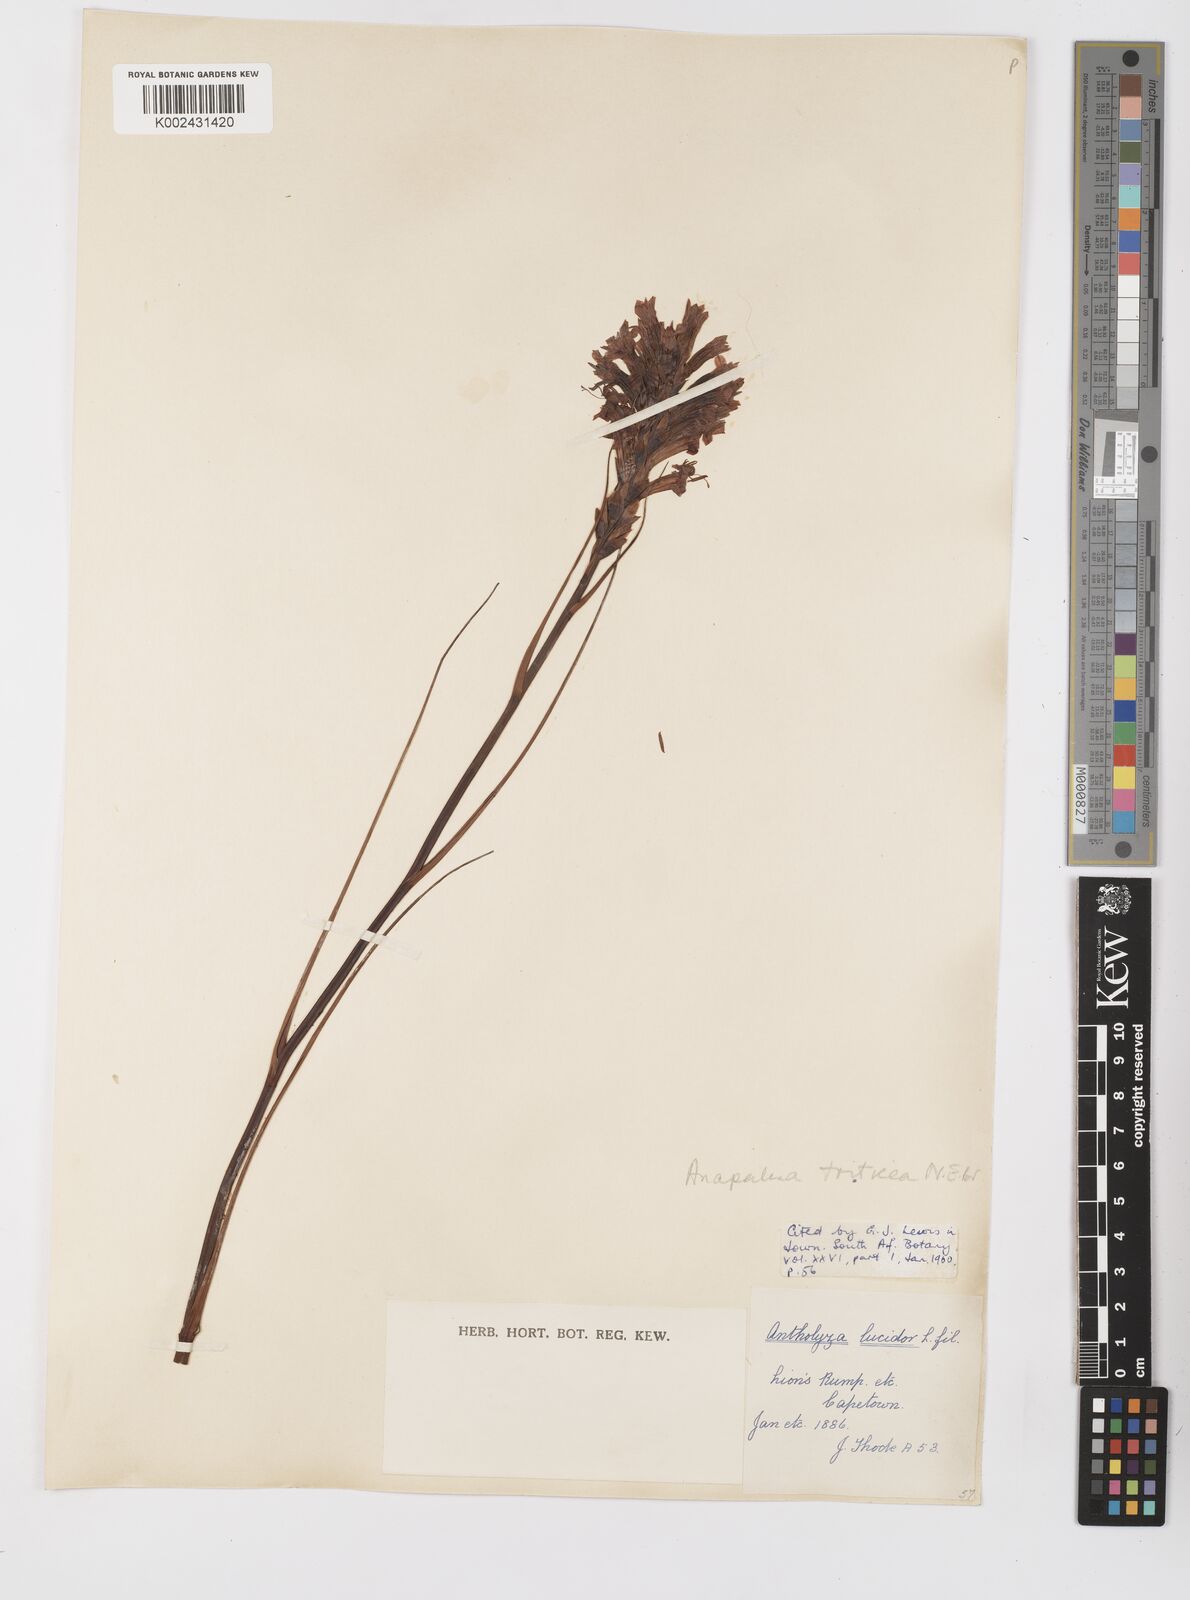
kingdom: Plantae
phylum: Tracheophyta
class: Liliopsida
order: Asparagales
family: Iridaceae
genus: Tritoniopsis
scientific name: Tritoniopsis triticea
